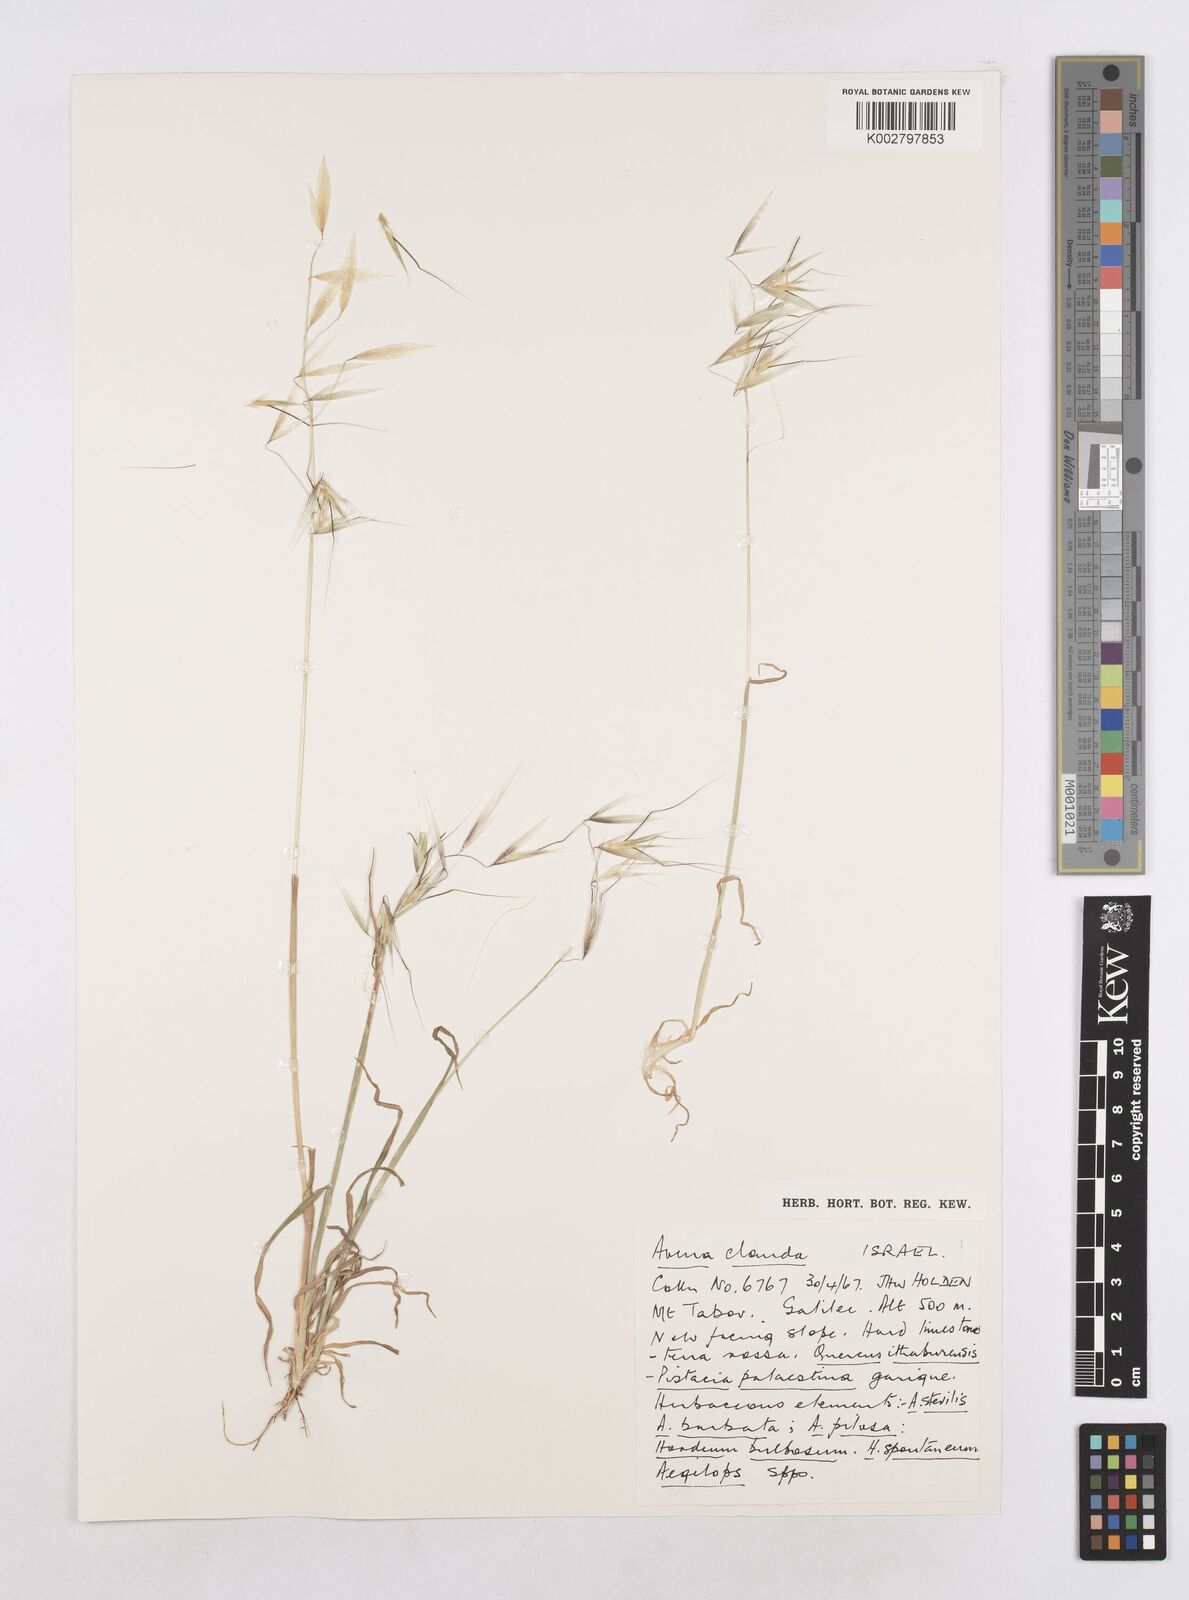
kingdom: Plantae
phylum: Tracheophyta
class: Liliopsida
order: Poales
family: Poaceae
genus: Avena
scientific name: Avena clauda
